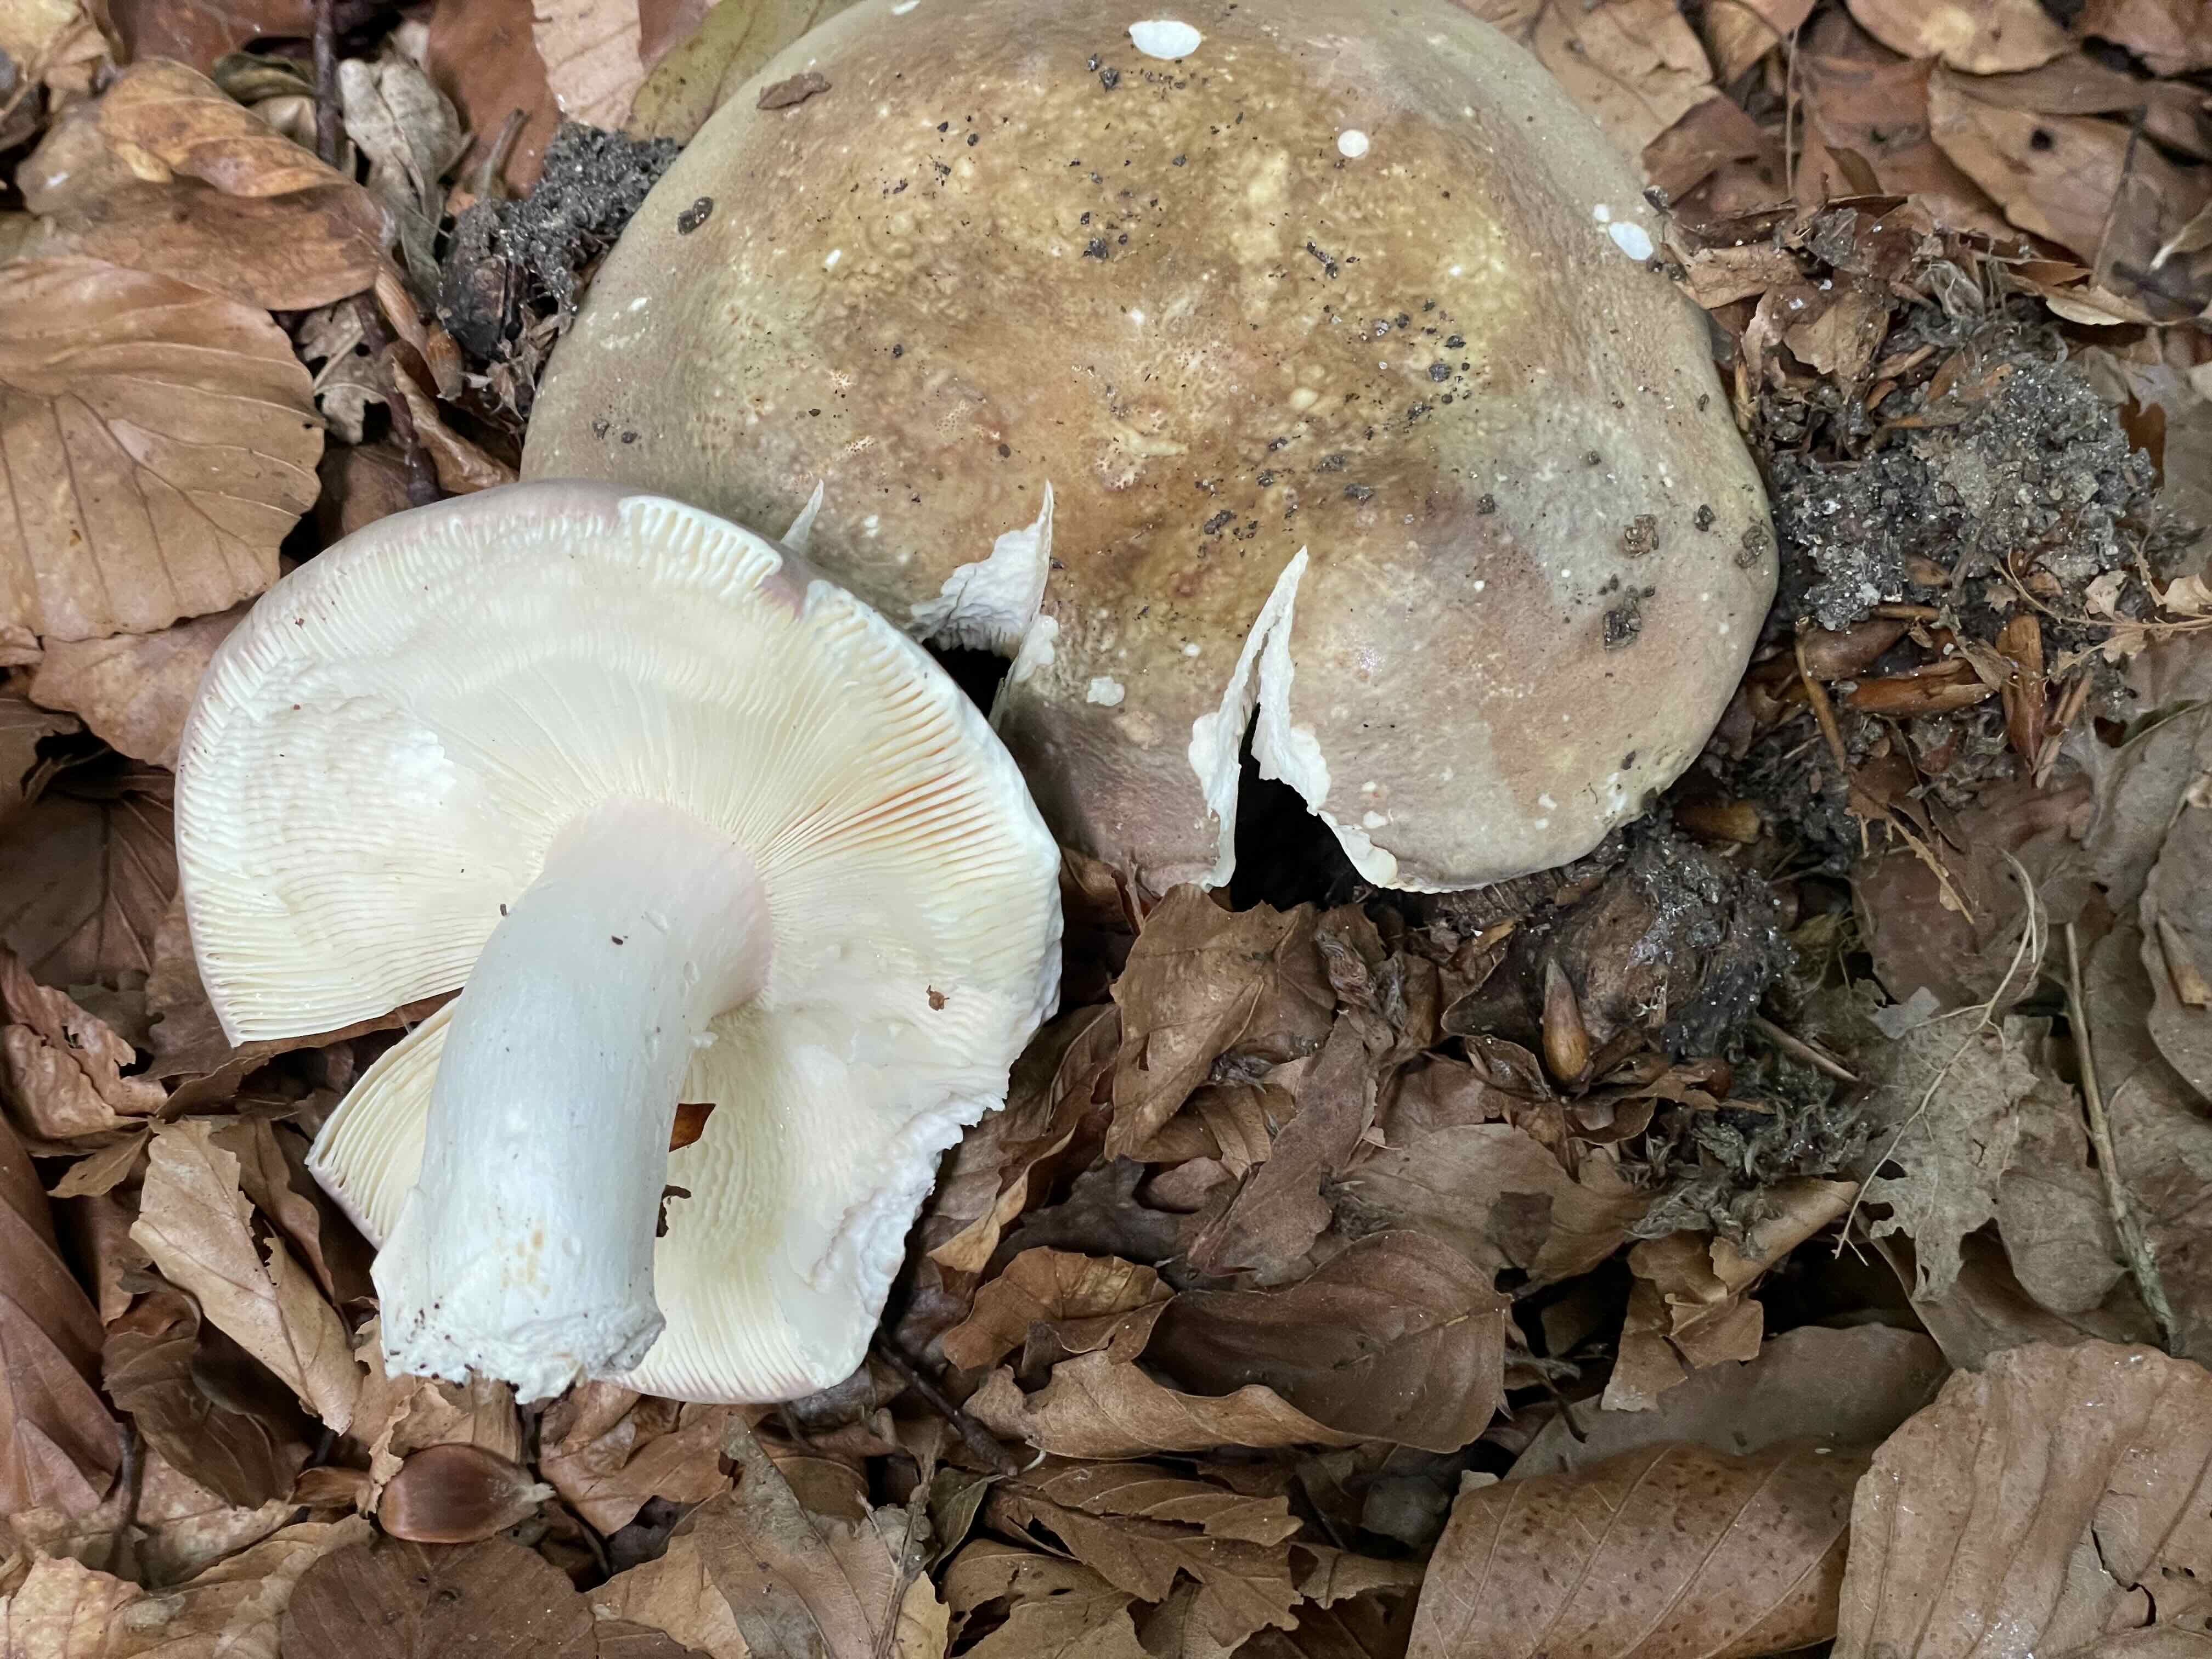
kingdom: Fungi
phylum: Basidiomycota
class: Agaricomycetes
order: Russulales
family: Russulaceae
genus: Russula
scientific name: Russula olivacea
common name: stor skørhat
